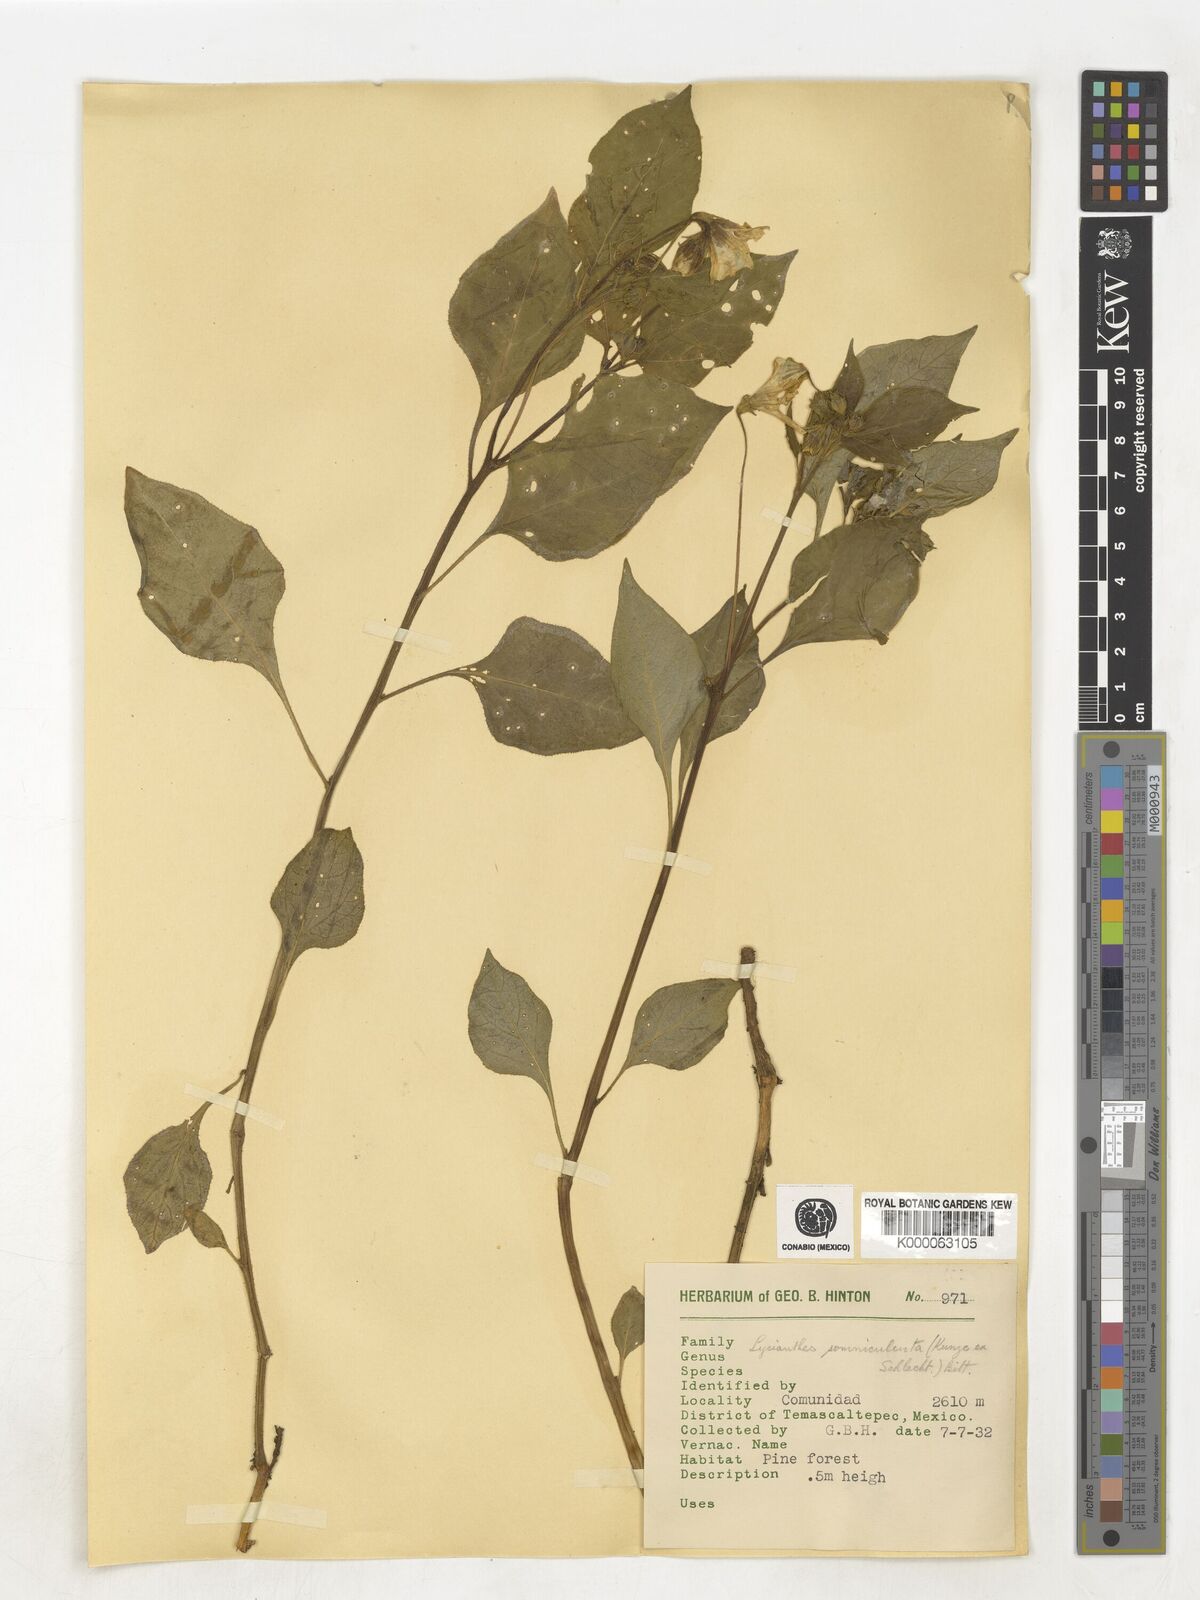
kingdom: Plantae
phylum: Tracheophyta
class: Magnoliopsida
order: Solanales
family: Solanaceae
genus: Lycianthes
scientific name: Lycianthes ciliolata
